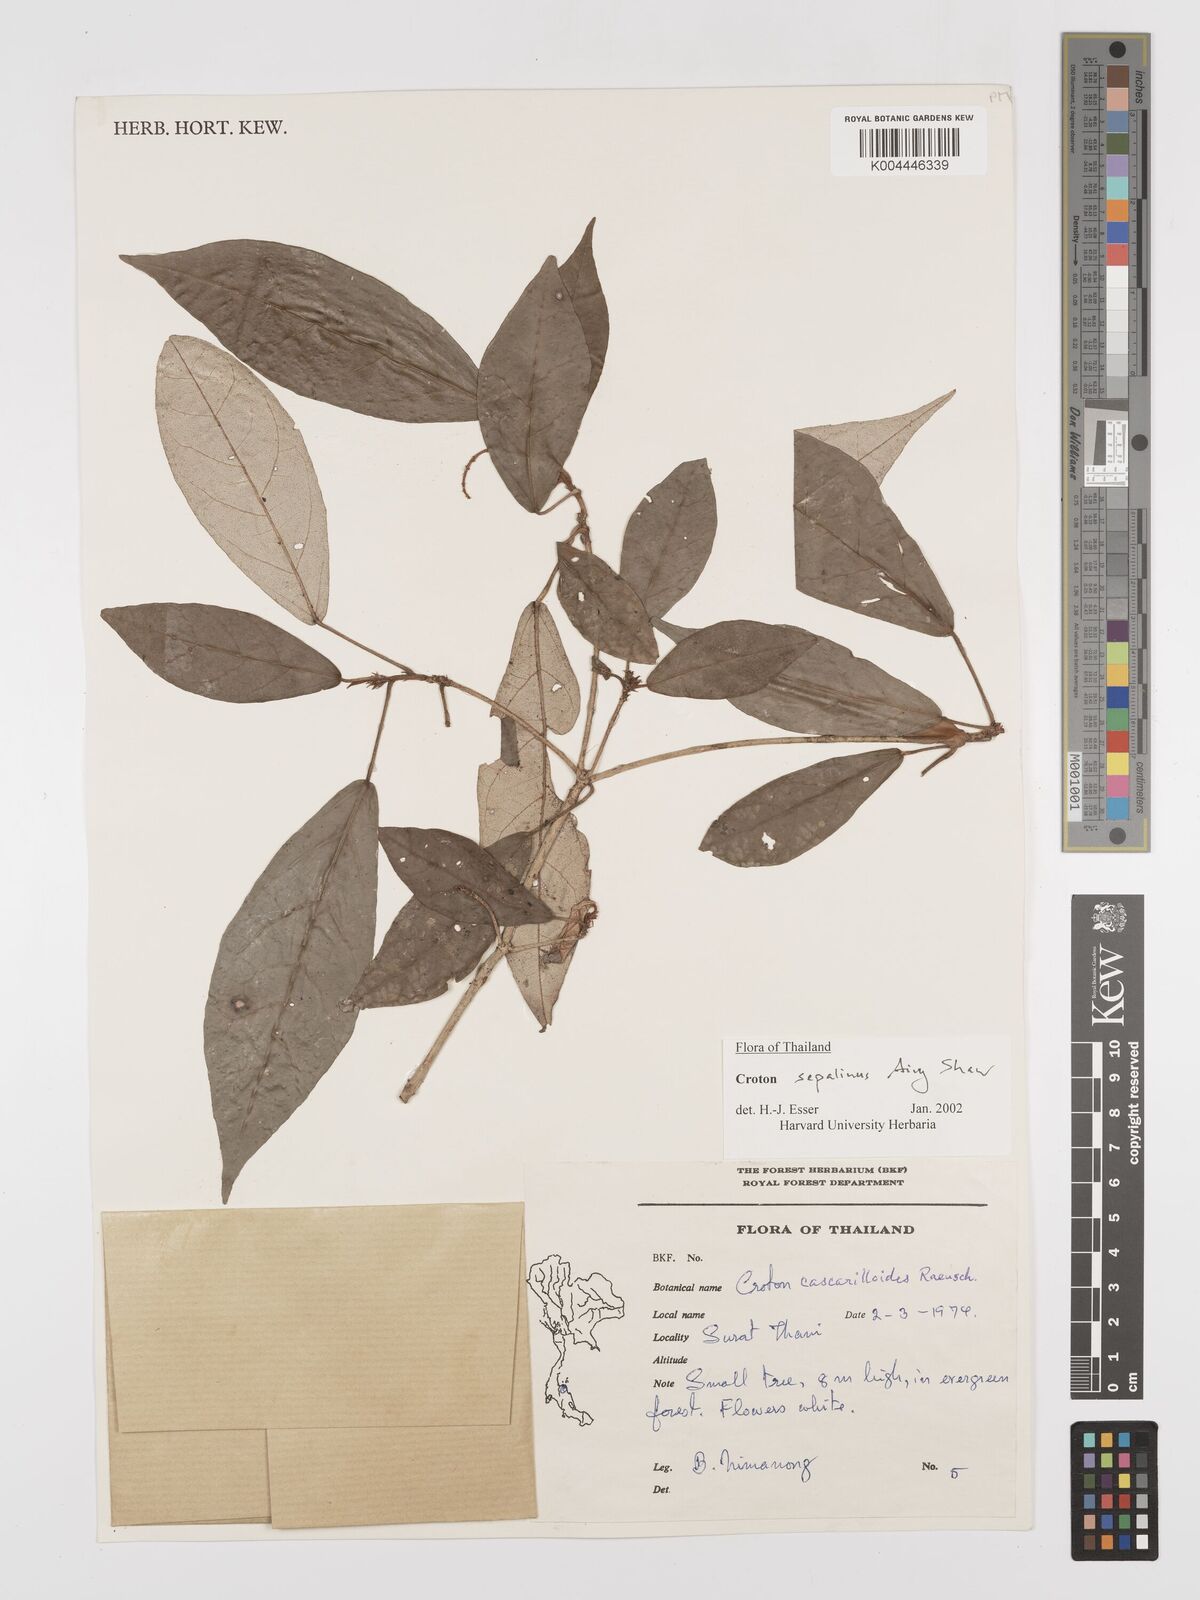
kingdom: Plantae
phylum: Tracheophyta
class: Magnoliopsida
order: Malpighiales
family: Euphorbiaceae
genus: Croton
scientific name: Croton sepalinus
